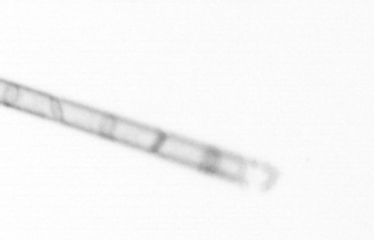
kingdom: Chromista
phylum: Ochrophyta
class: Bacillariophyceae
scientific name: Bacillariophyceae
